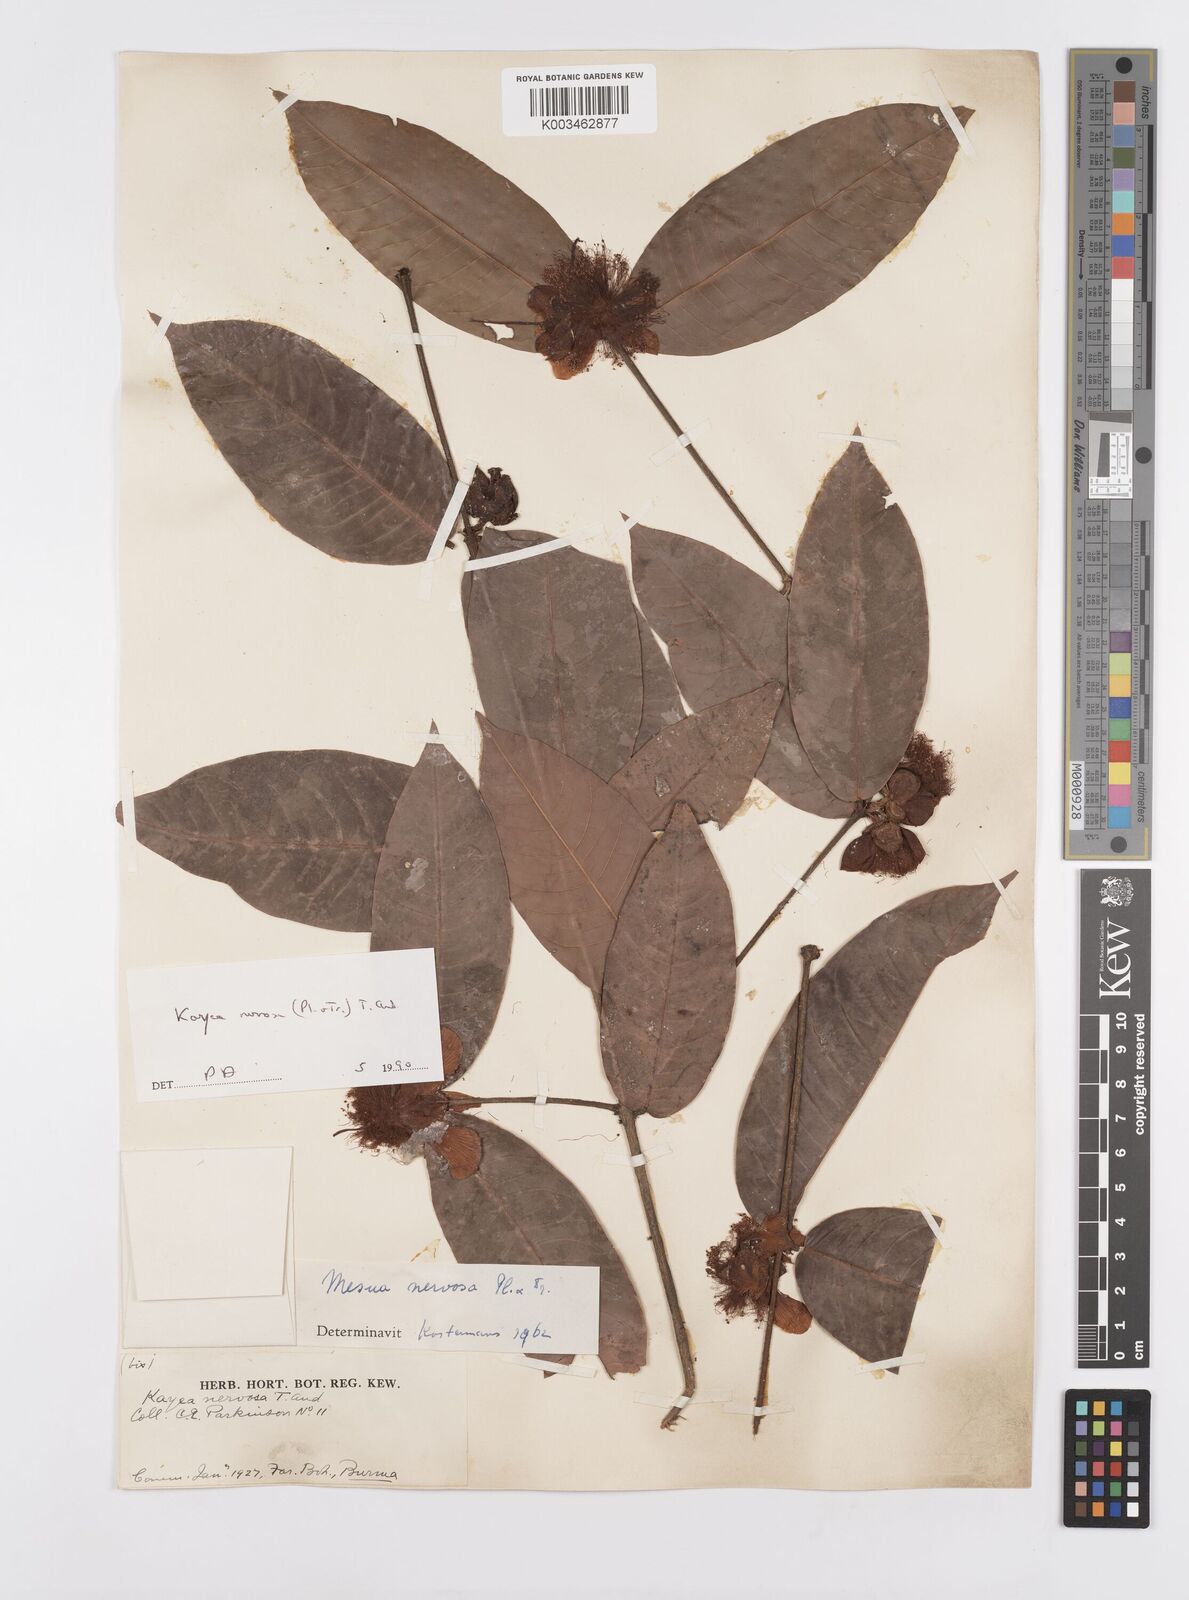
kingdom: Plantae
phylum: Tracheophyta
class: Magnoliopsida
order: Malpighiales
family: Calophyllaceae
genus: Kayea
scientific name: Kayea nervosa
